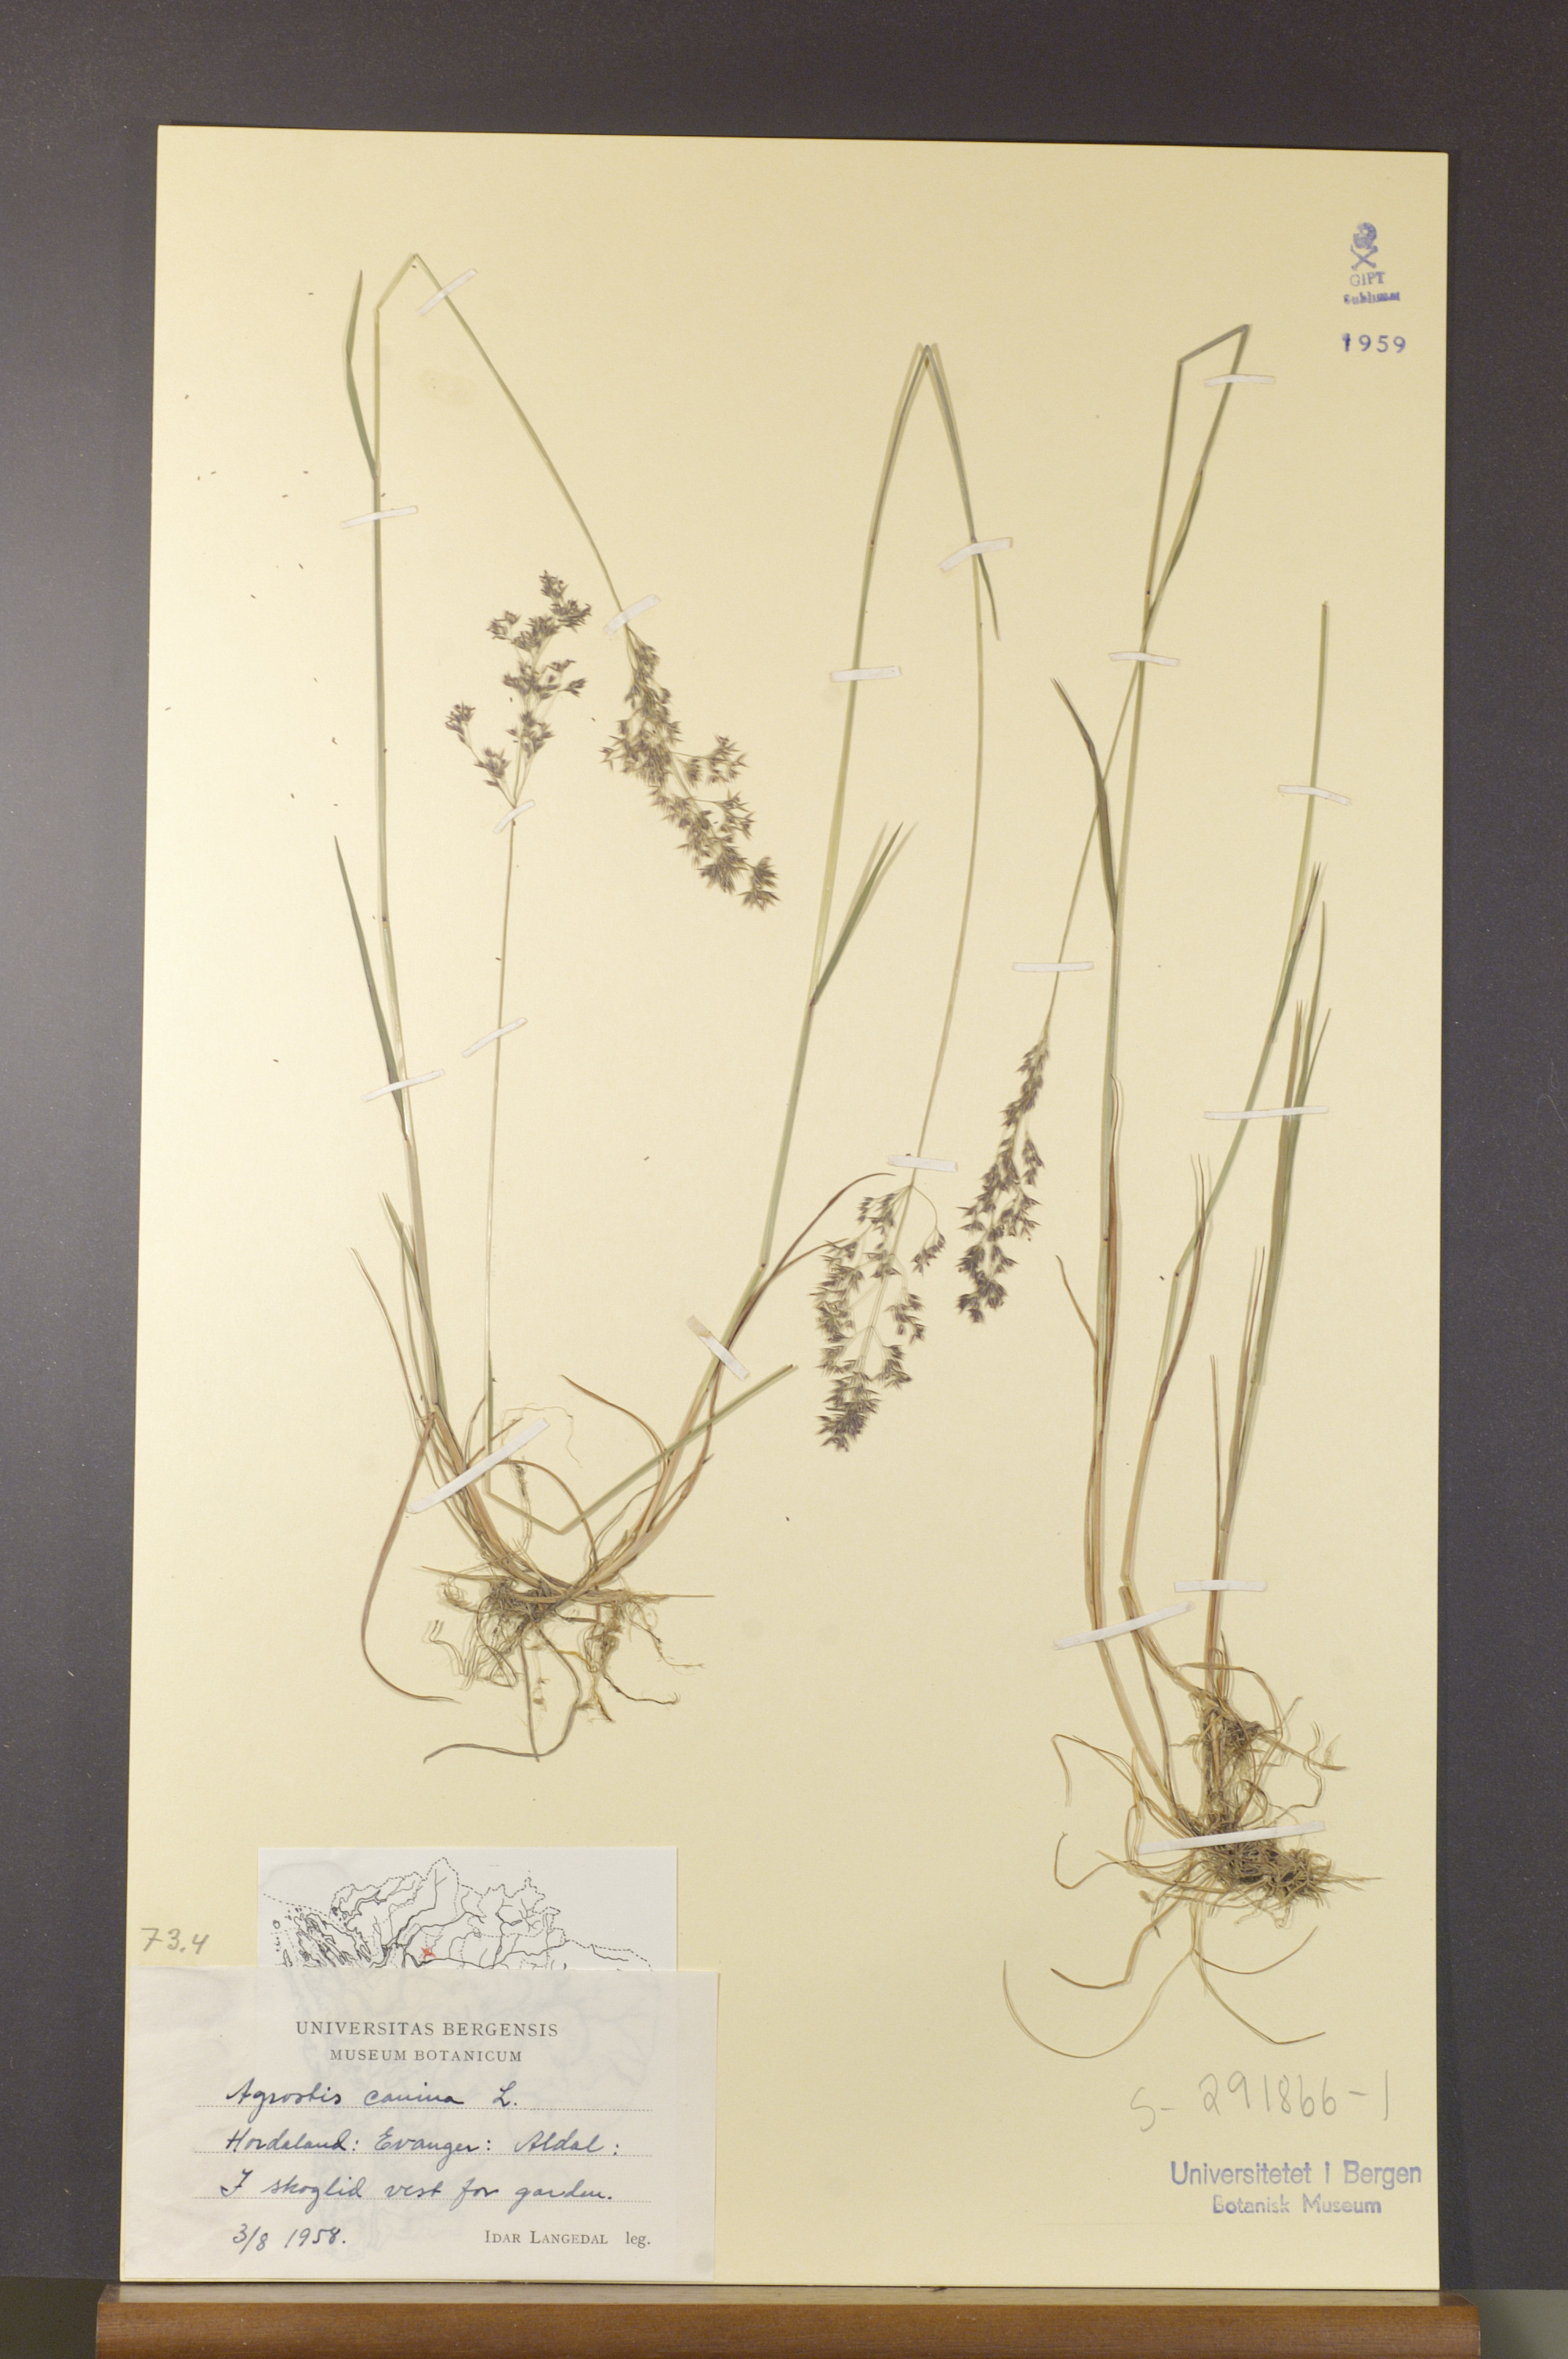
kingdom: Plantae
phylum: Tracheophyta
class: Liliopsida
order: Poales
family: Poaceae
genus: Agrostis
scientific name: Agrostis canina
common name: Velvet bent
